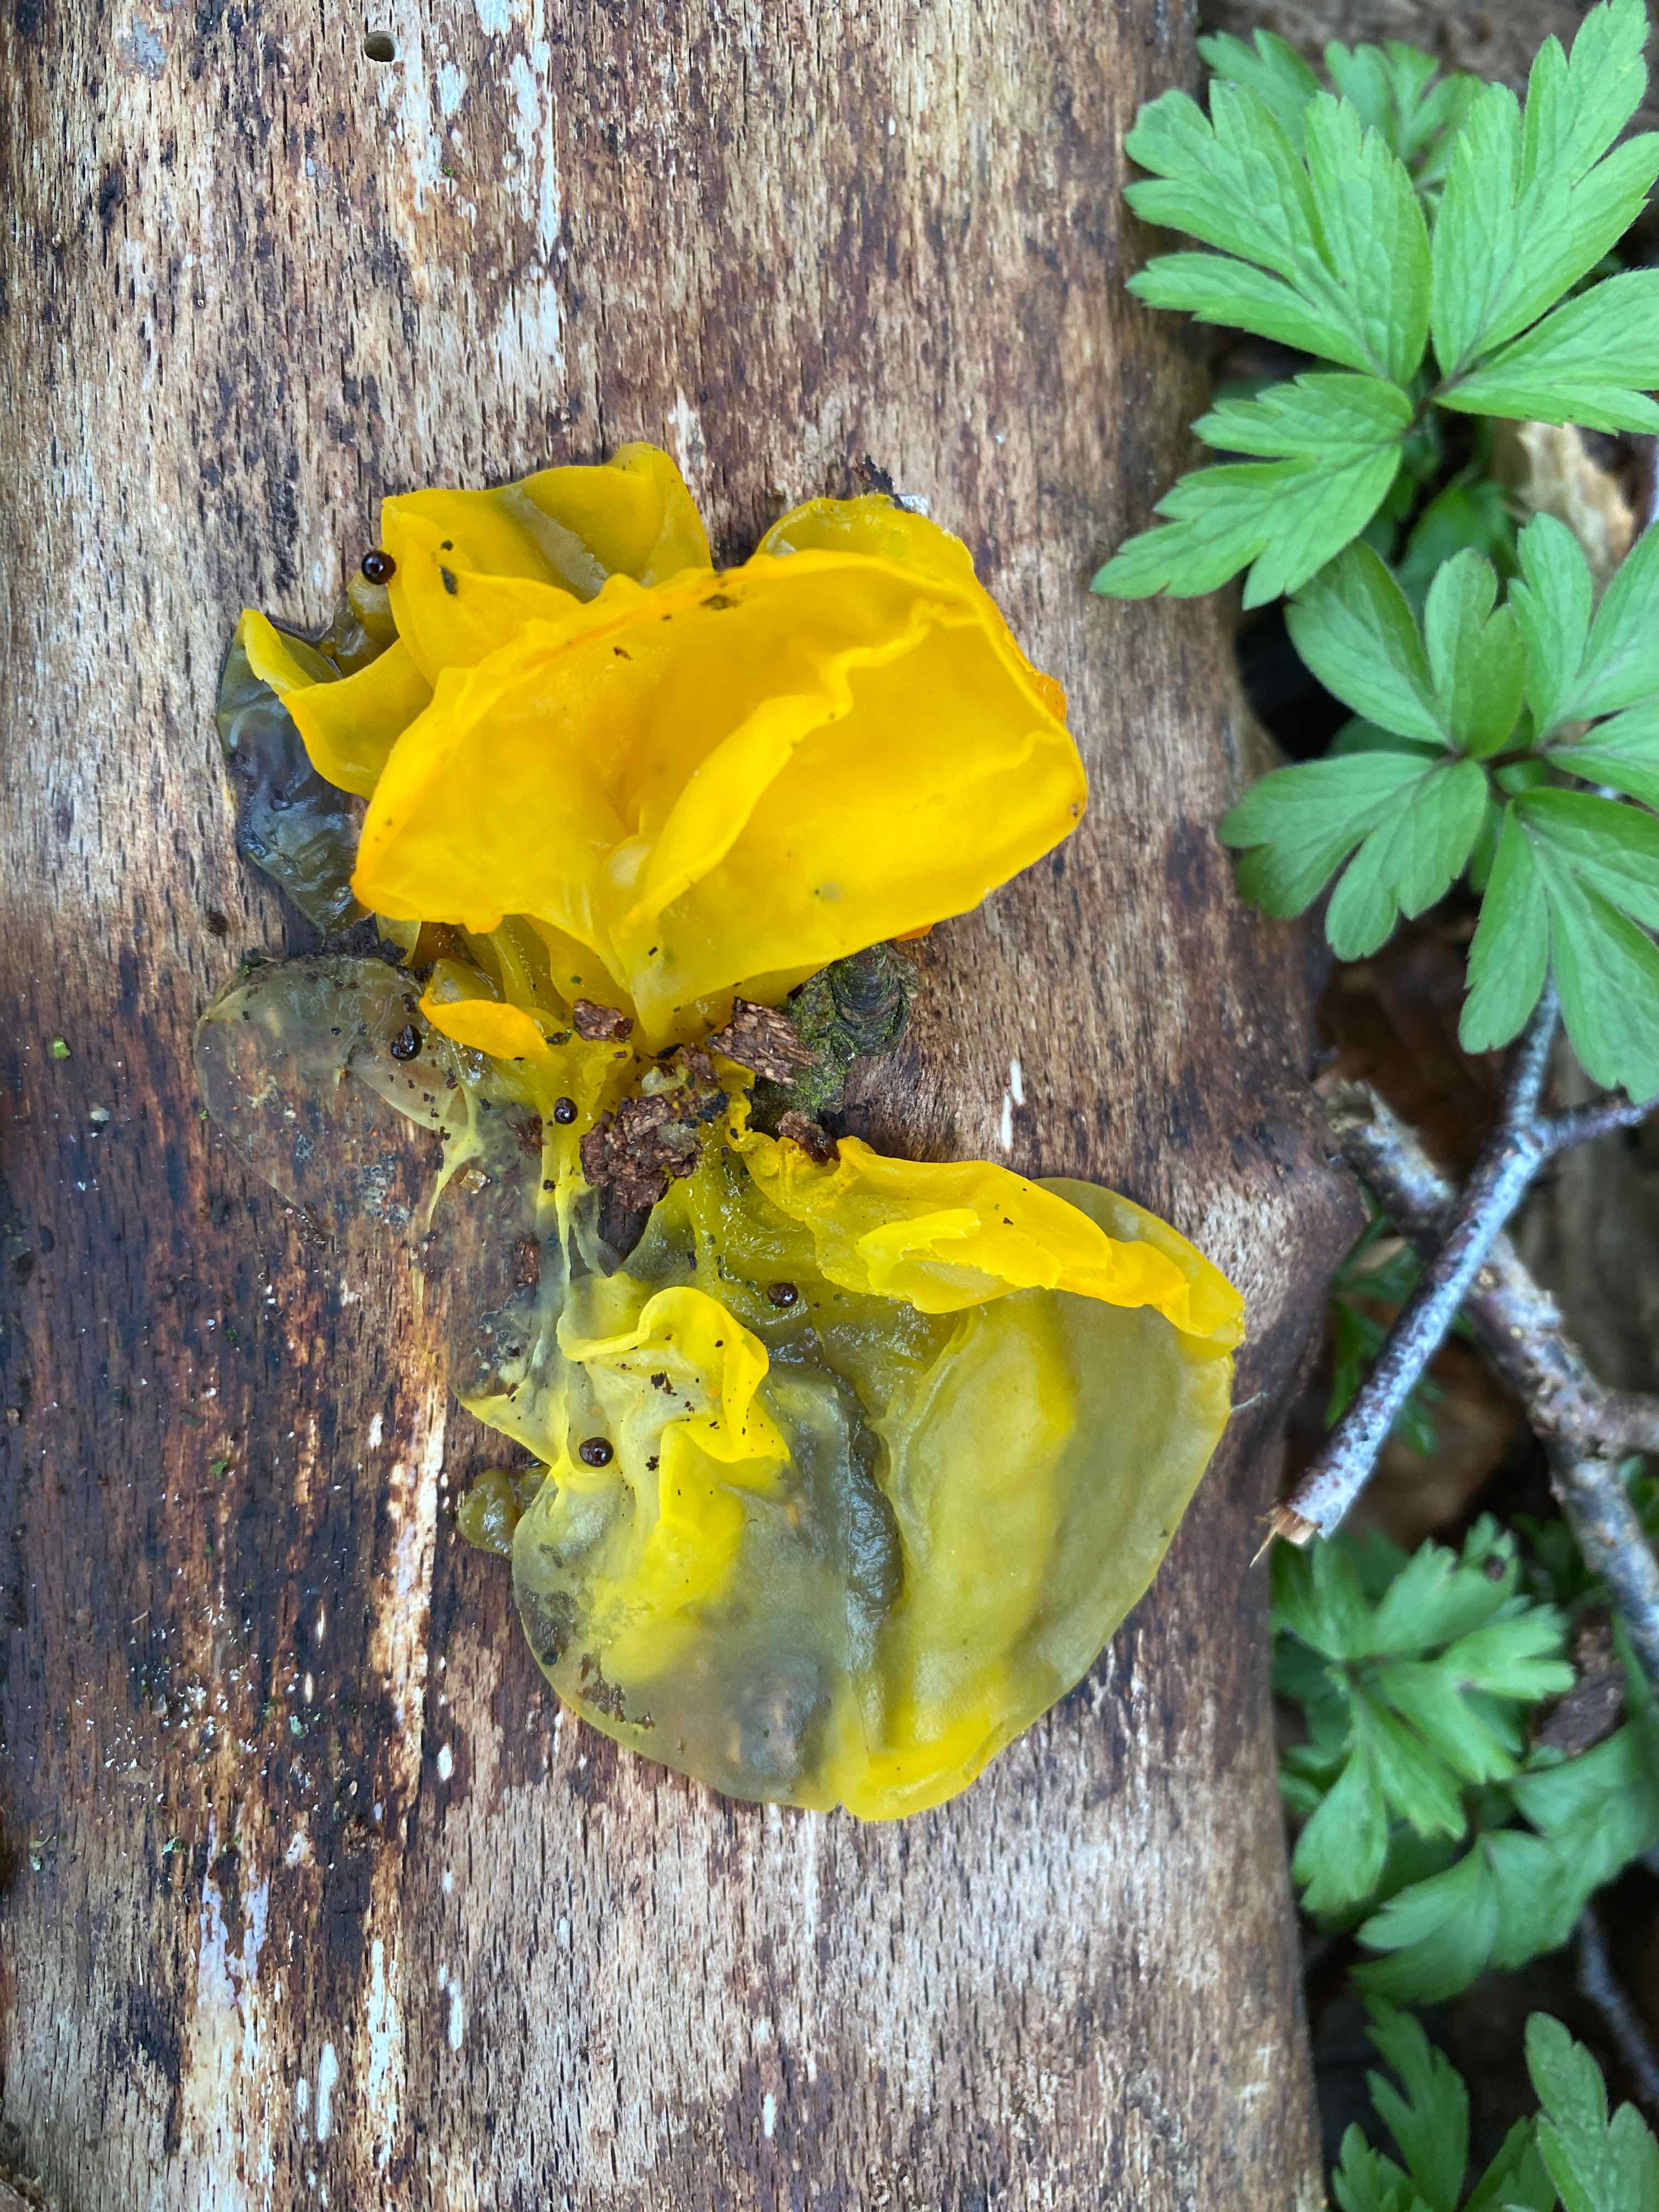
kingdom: Fungi
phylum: Basidiomycota
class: Tremellomycetes
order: Tremellales
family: Tremellaceae
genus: Tremella
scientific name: Tremella mesenterica
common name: gul bævresvamp
